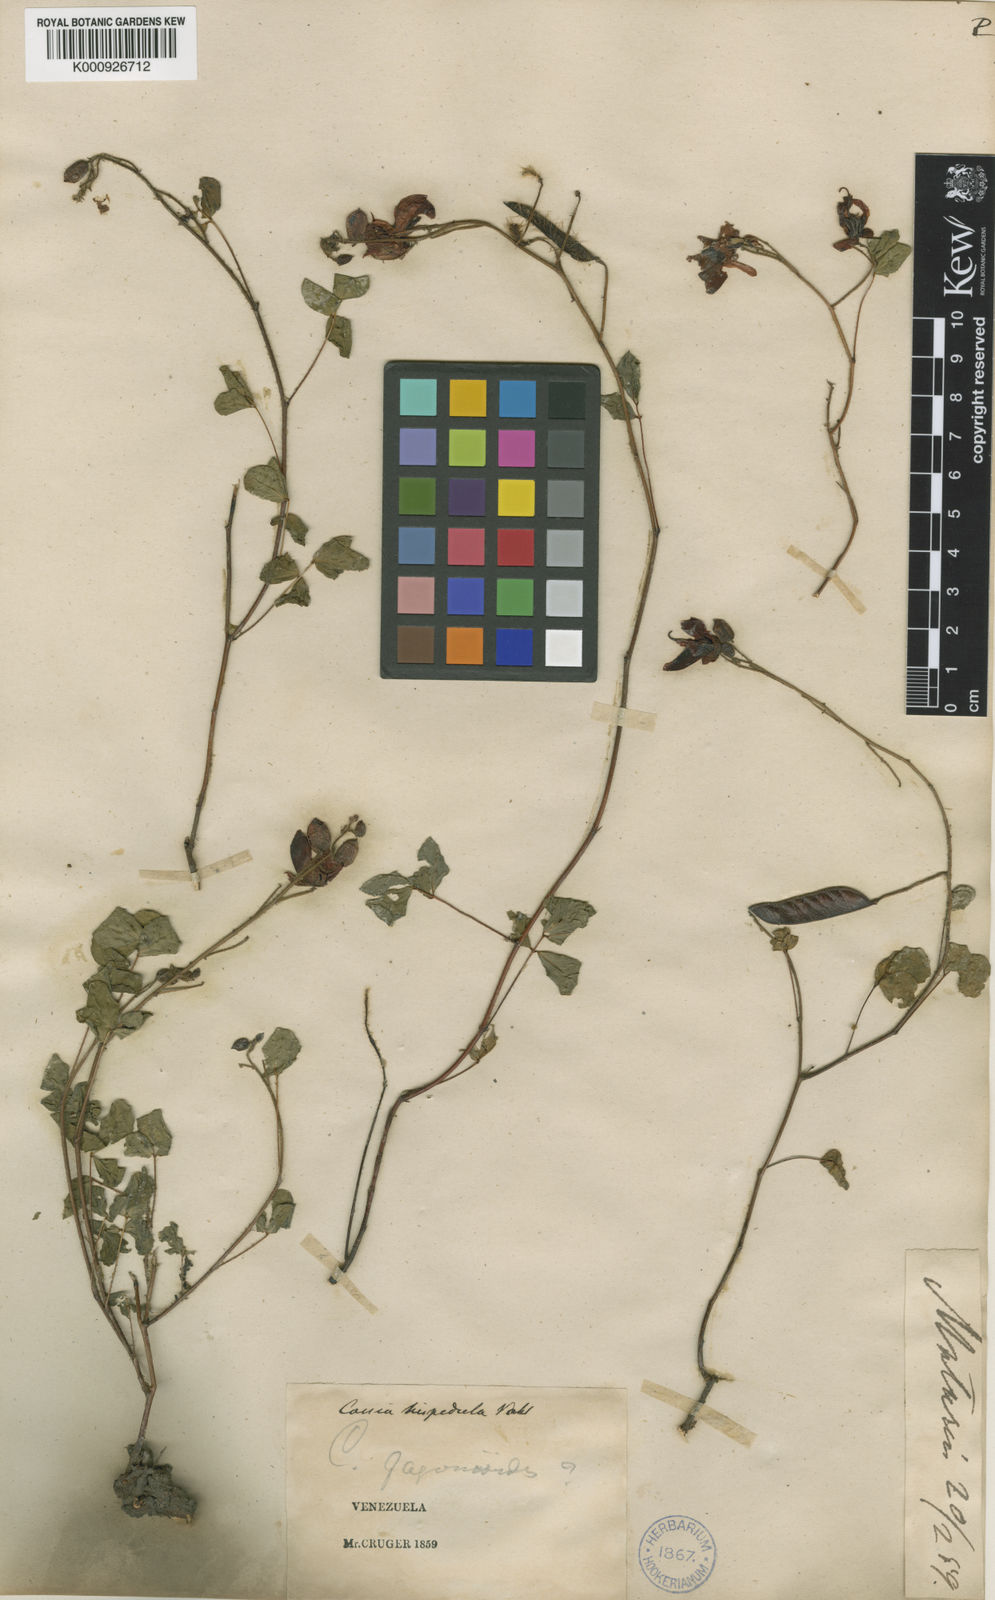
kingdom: Plantae
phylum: Tracheophyta
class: Magnoliopsida
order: Fabales
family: Fabaceae
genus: Chamaecrista
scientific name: Chamaecrista hispidula
